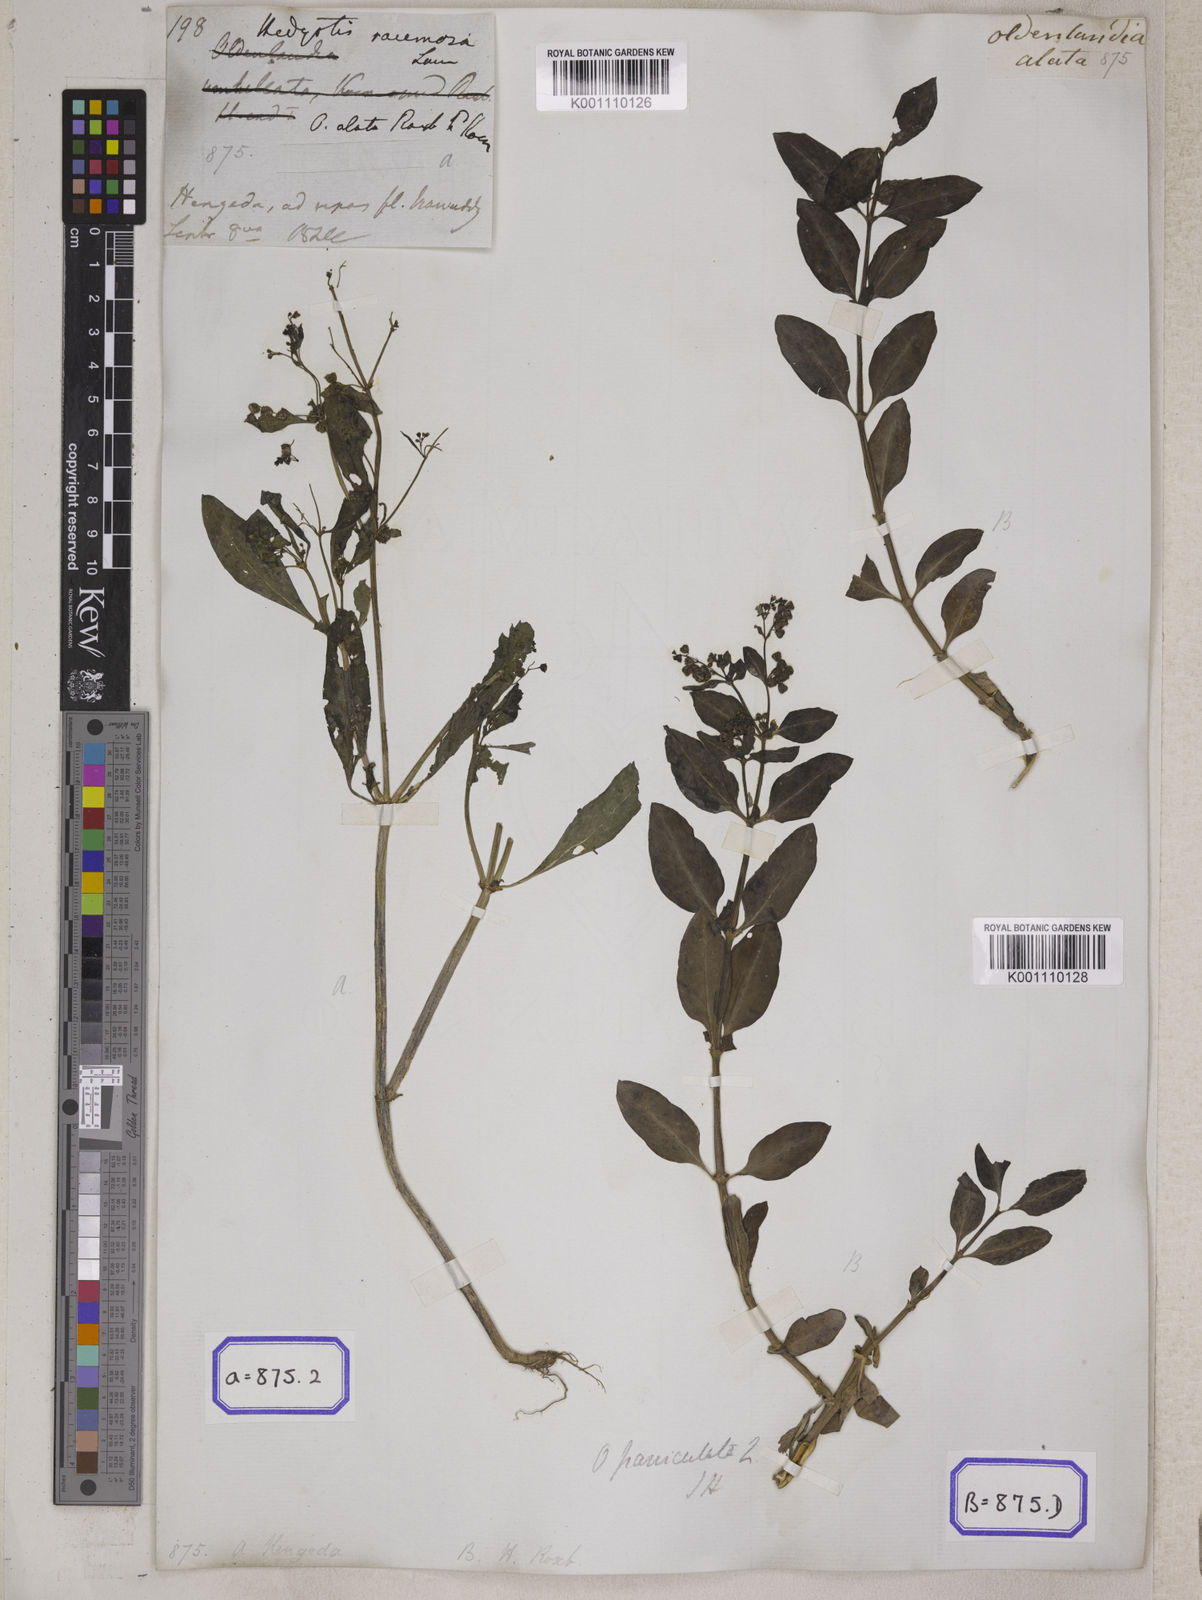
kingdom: Plantae
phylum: Tracheophyta
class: Magnoliopsida
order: Gentianales
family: Rubiaceae
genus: Leptopetalum
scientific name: Leptopetalum racemosum
